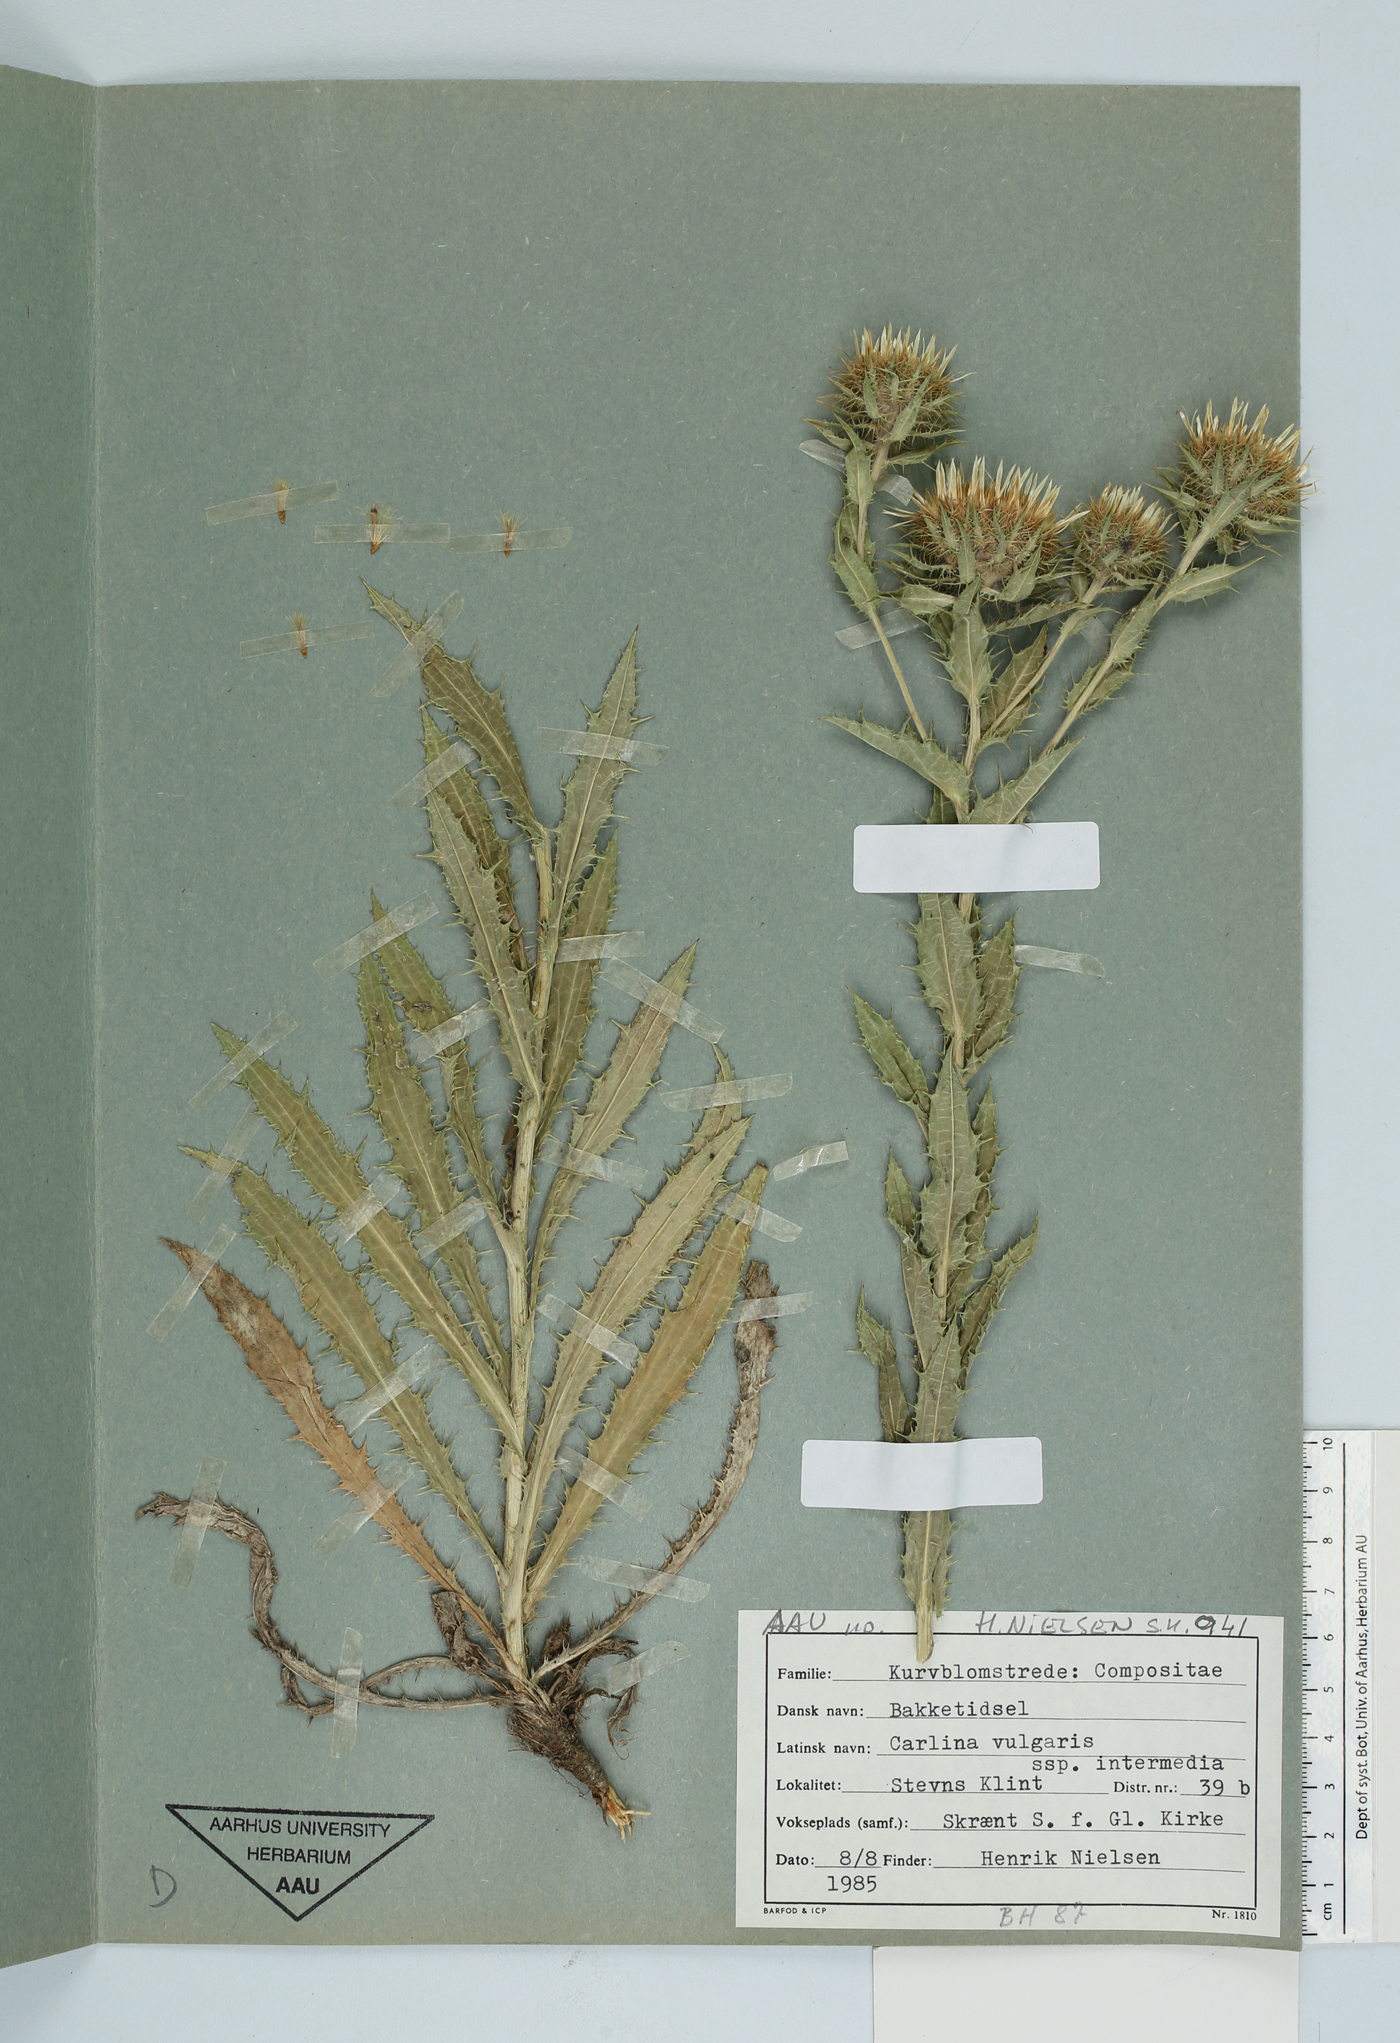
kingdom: Plantae
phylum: Tracheophyta
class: Magnoliopsida
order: Asterales
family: Asteraceae
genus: Carlina
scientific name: Carlina vulgaris
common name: Carline thistle
